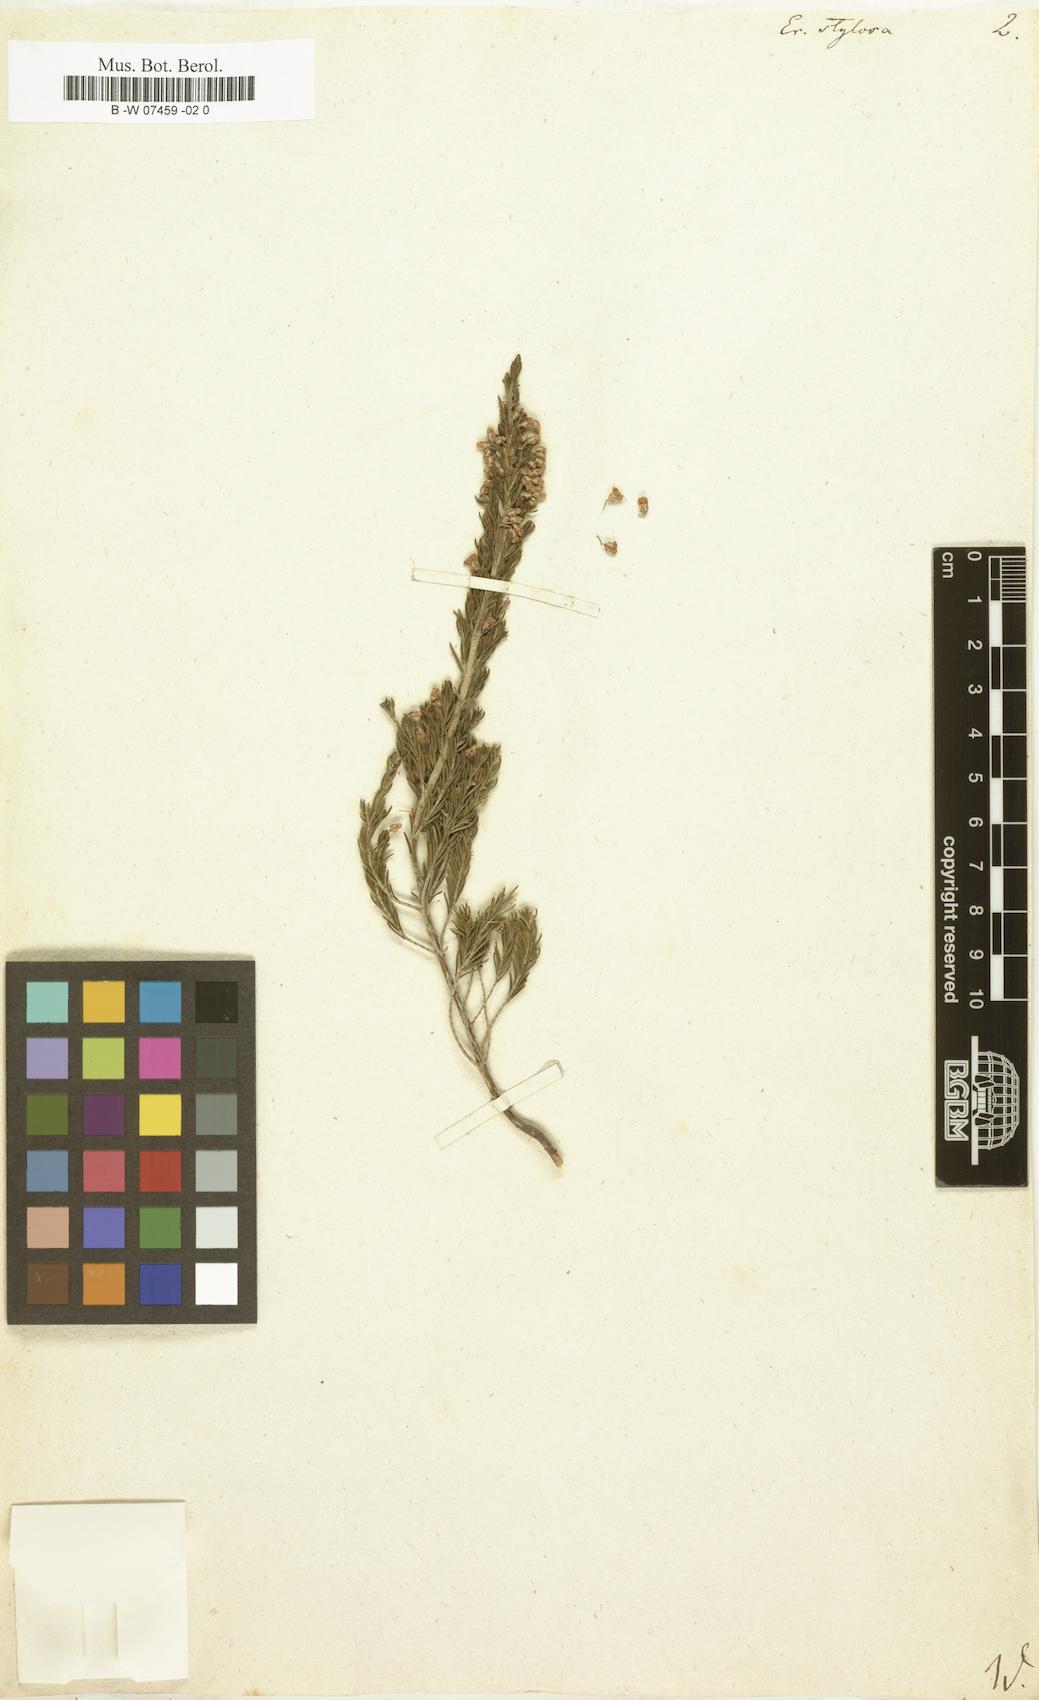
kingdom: Plantae
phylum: Tracheophyta
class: Magnoliopsida
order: Ericales
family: Ericaceae
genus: Erica
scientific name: Erica imbricata
